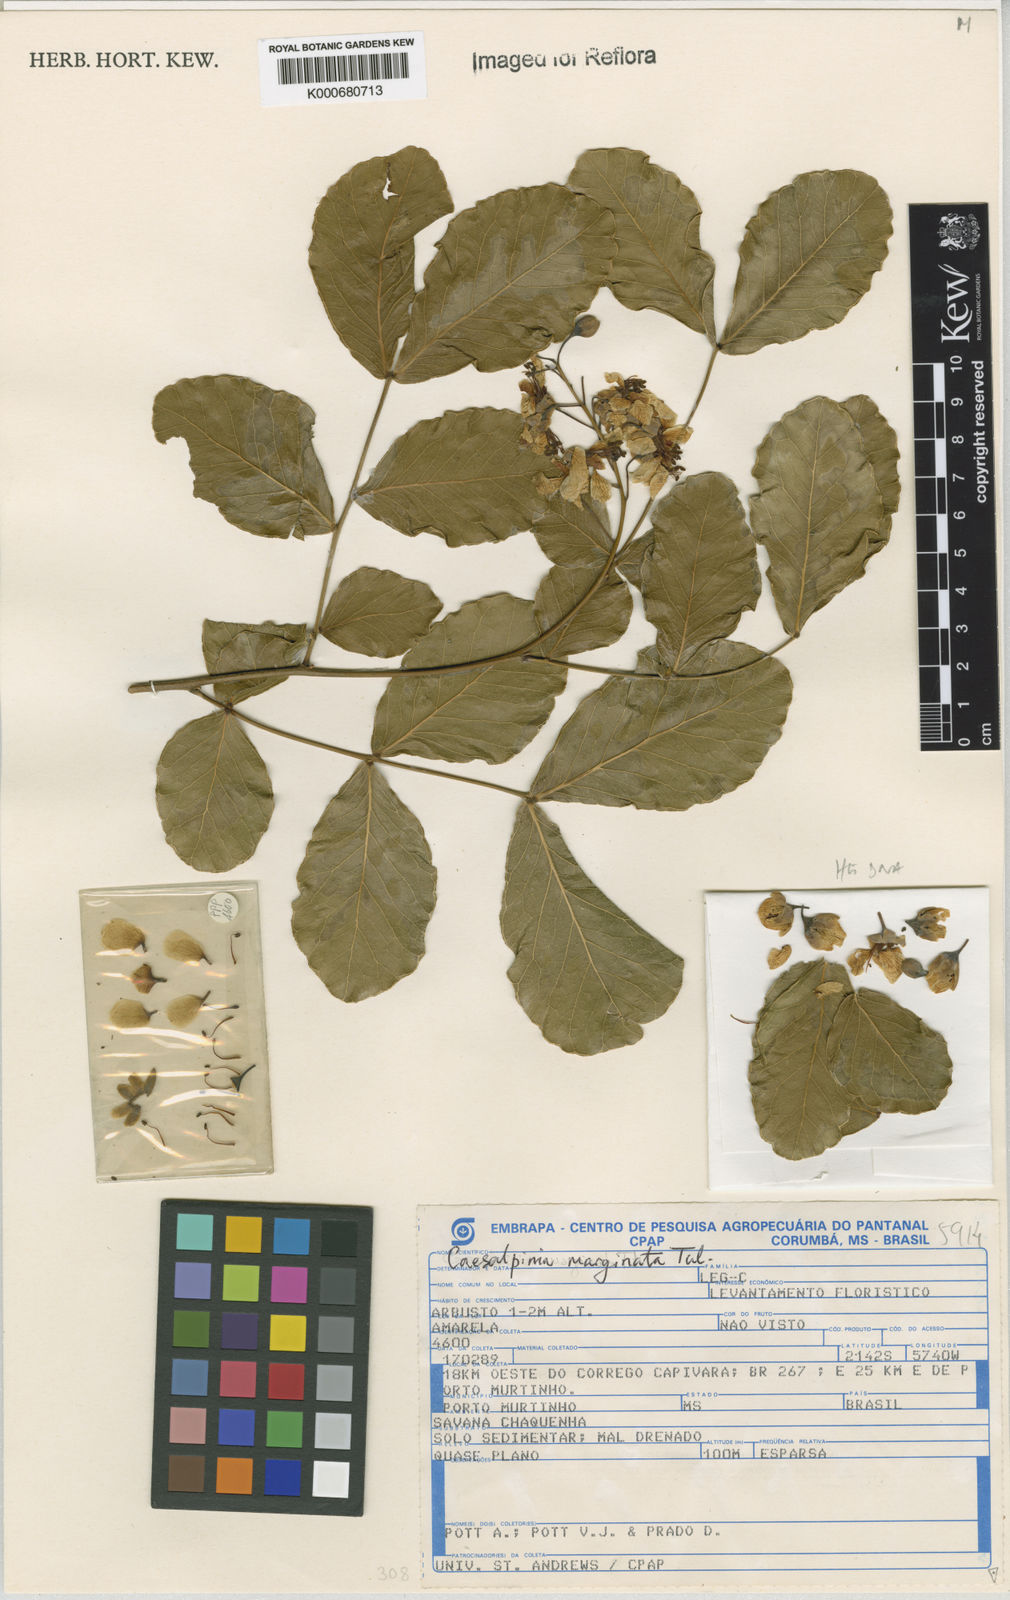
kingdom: Plantae
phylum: Tracheophyta
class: Magnoliopsida
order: Fabales
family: Fabaceae
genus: Cenostigma
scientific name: Cenostigma marginatum
